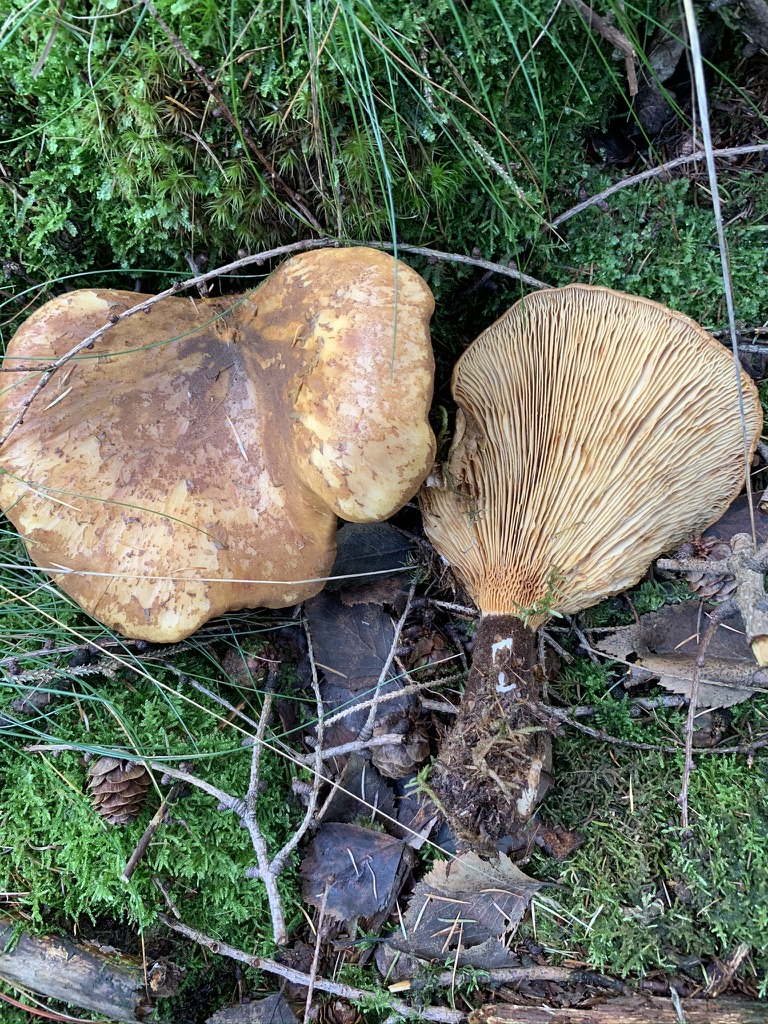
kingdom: Fungi
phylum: Basidiomycota
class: Agaricomycetes
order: Boletales
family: Tapinellaceae
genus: Tapinella
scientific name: Tapinella atrotomentosa
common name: sortfiltet viftesvamp
